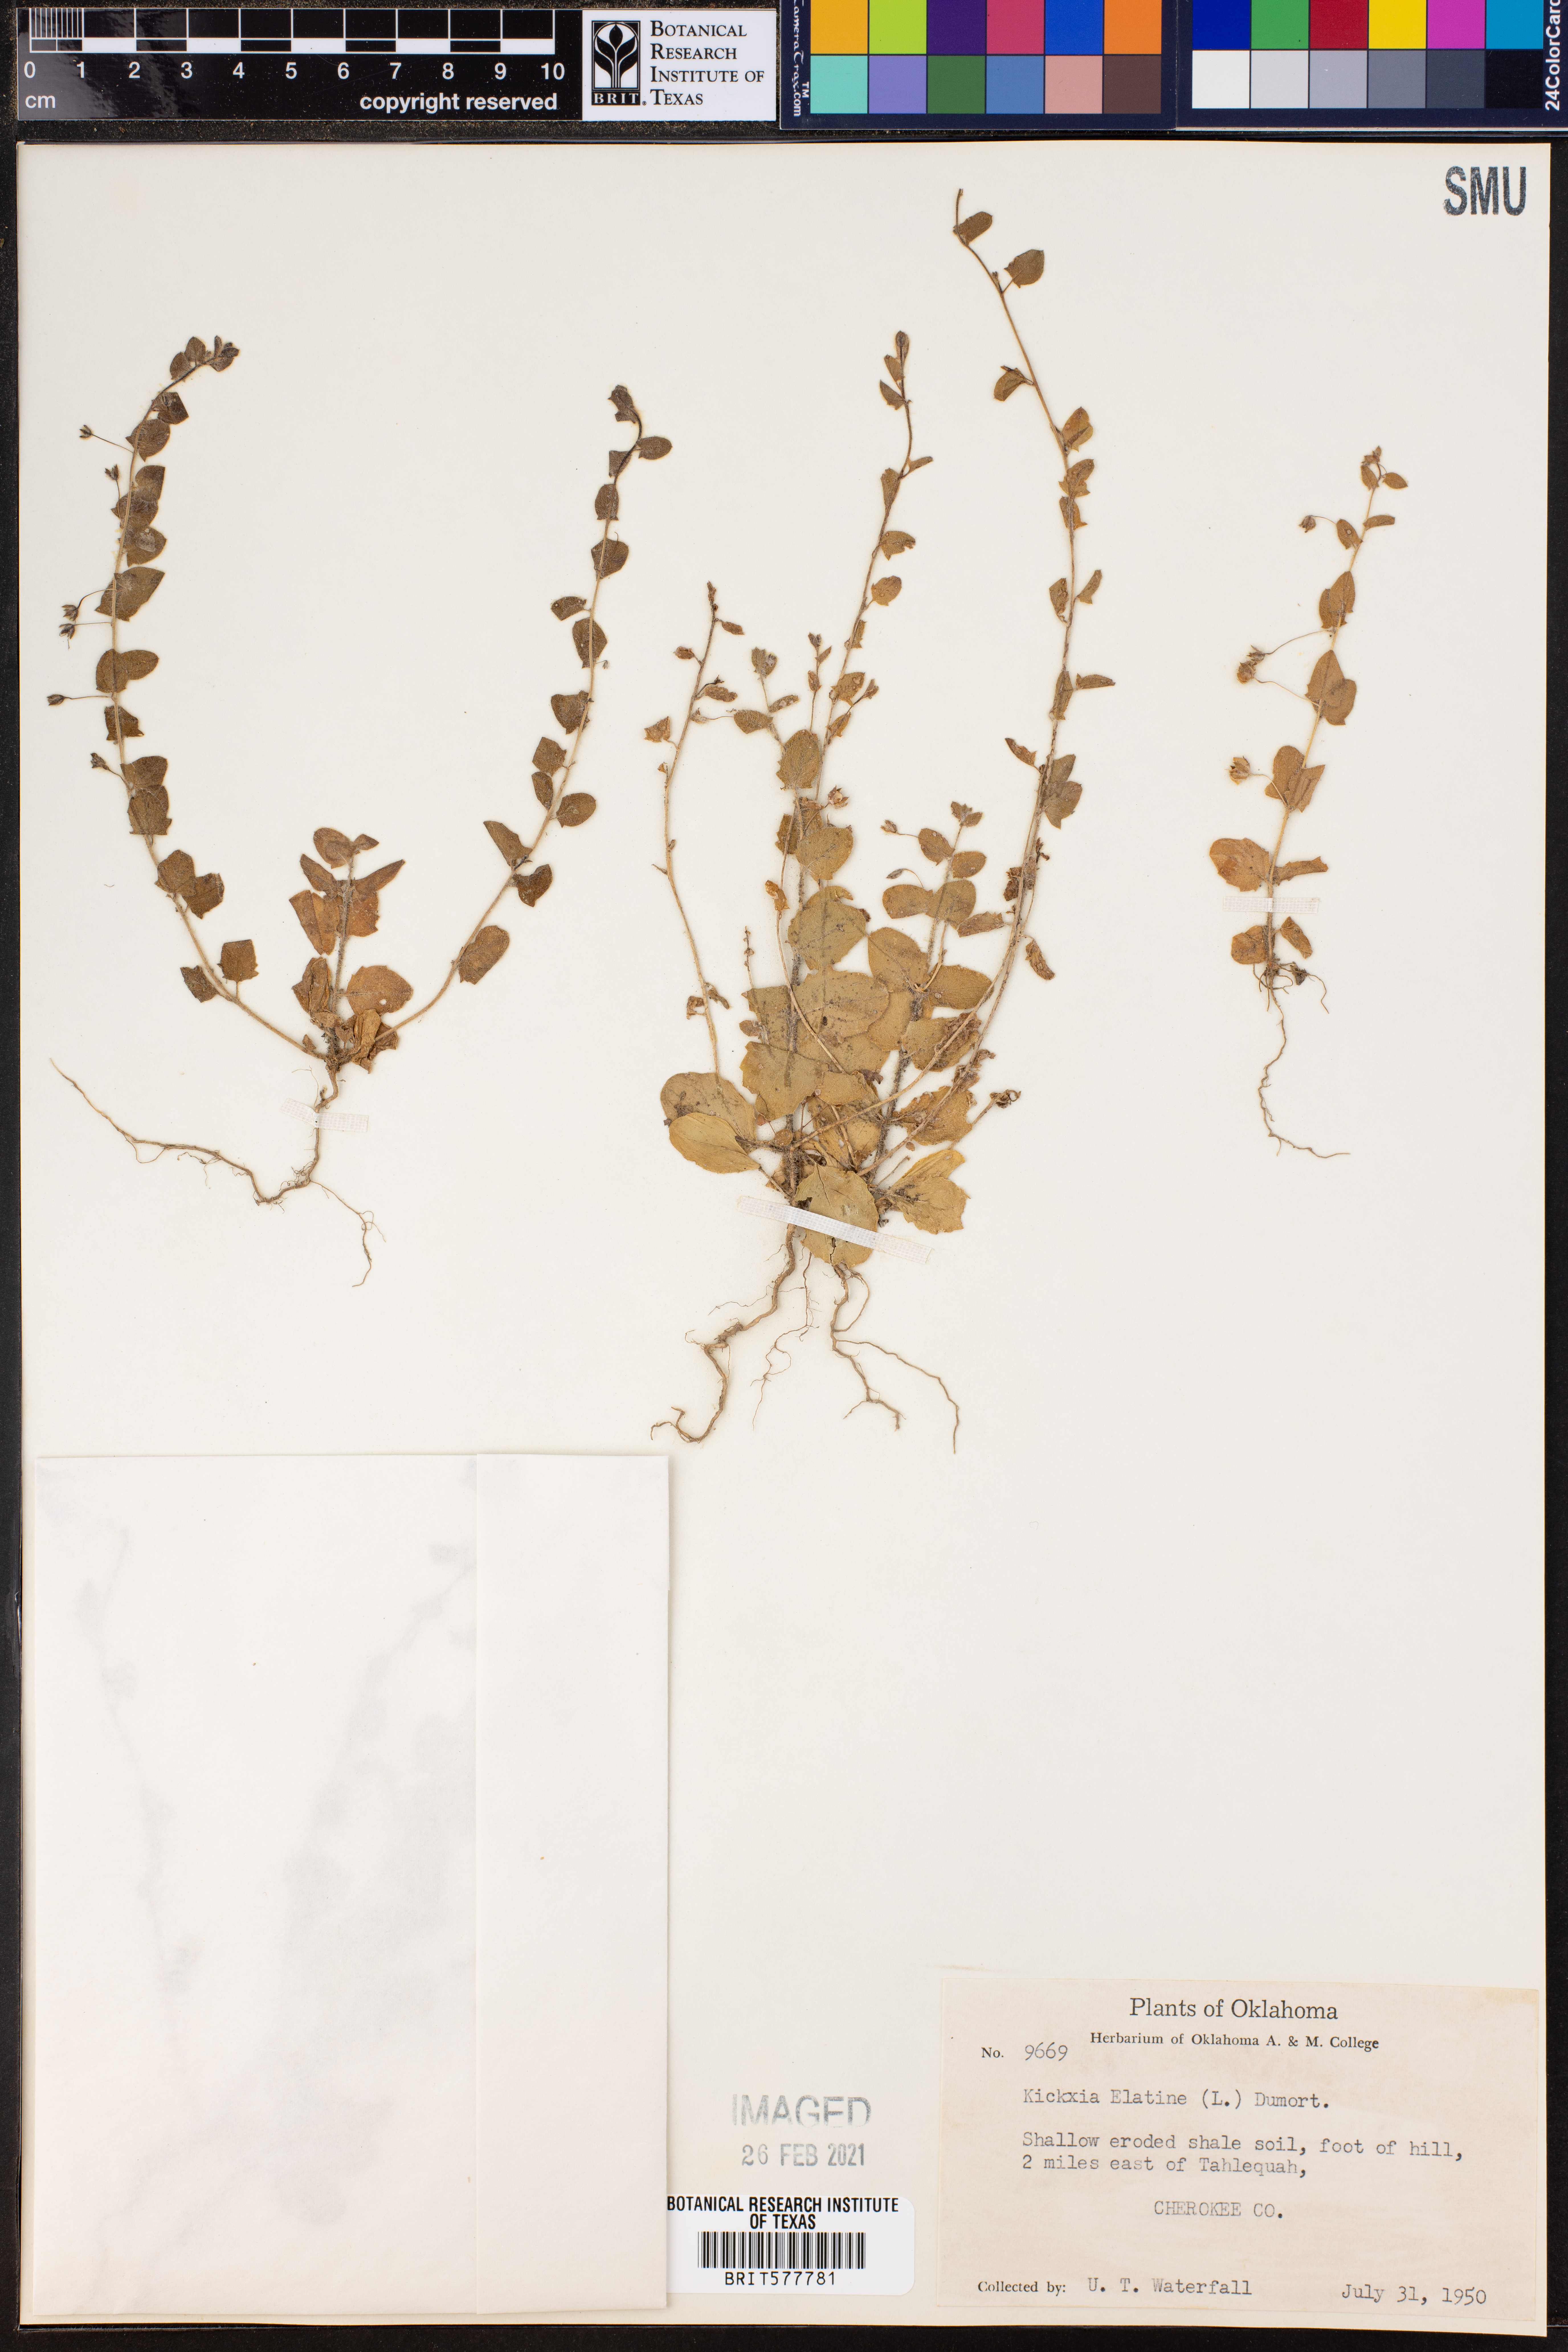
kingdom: Plantae
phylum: Tracheophyta
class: Magnoliopsida
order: Lamiales
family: Plantaginaceae
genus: Kickxia
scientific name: Kickxia elatine
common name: Sharp-leaved fluellen
